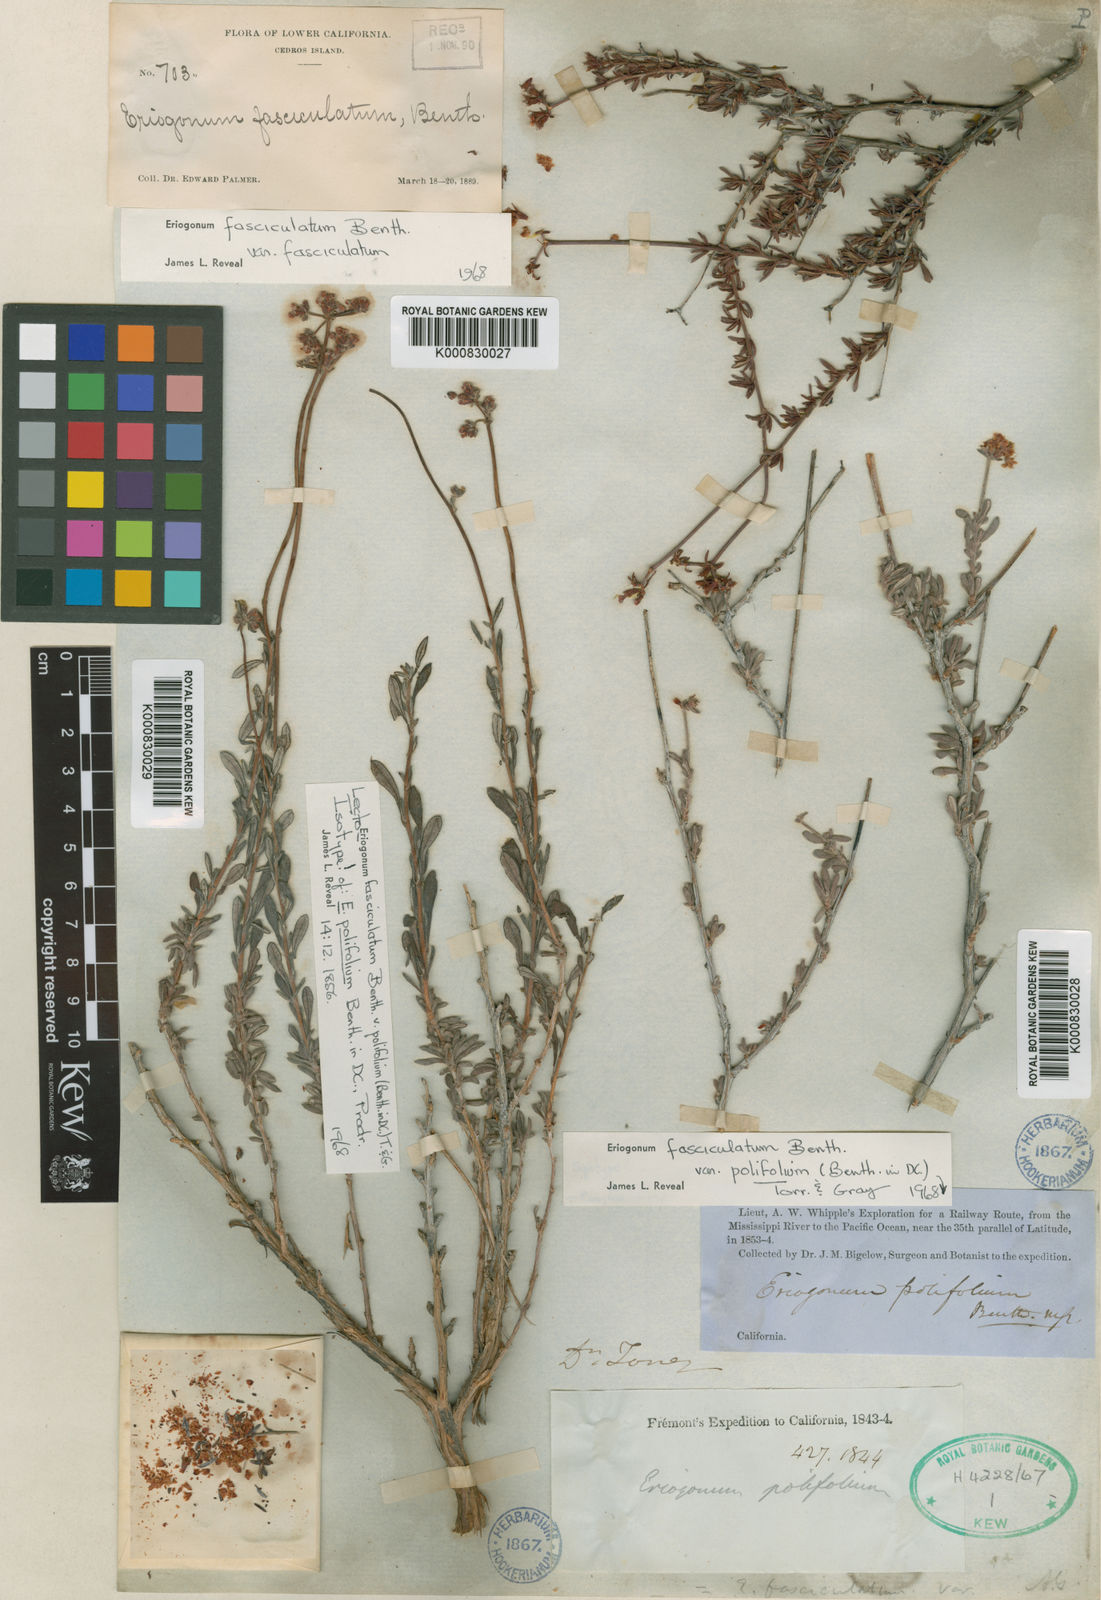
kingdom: Plantae
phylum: Tracheophyta
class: Magnoliopsida
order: Caryophyllales
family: Polygonaceae
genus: Eriogonum
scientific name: Eriogonum fasciculatum
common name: California wild buckwheat
